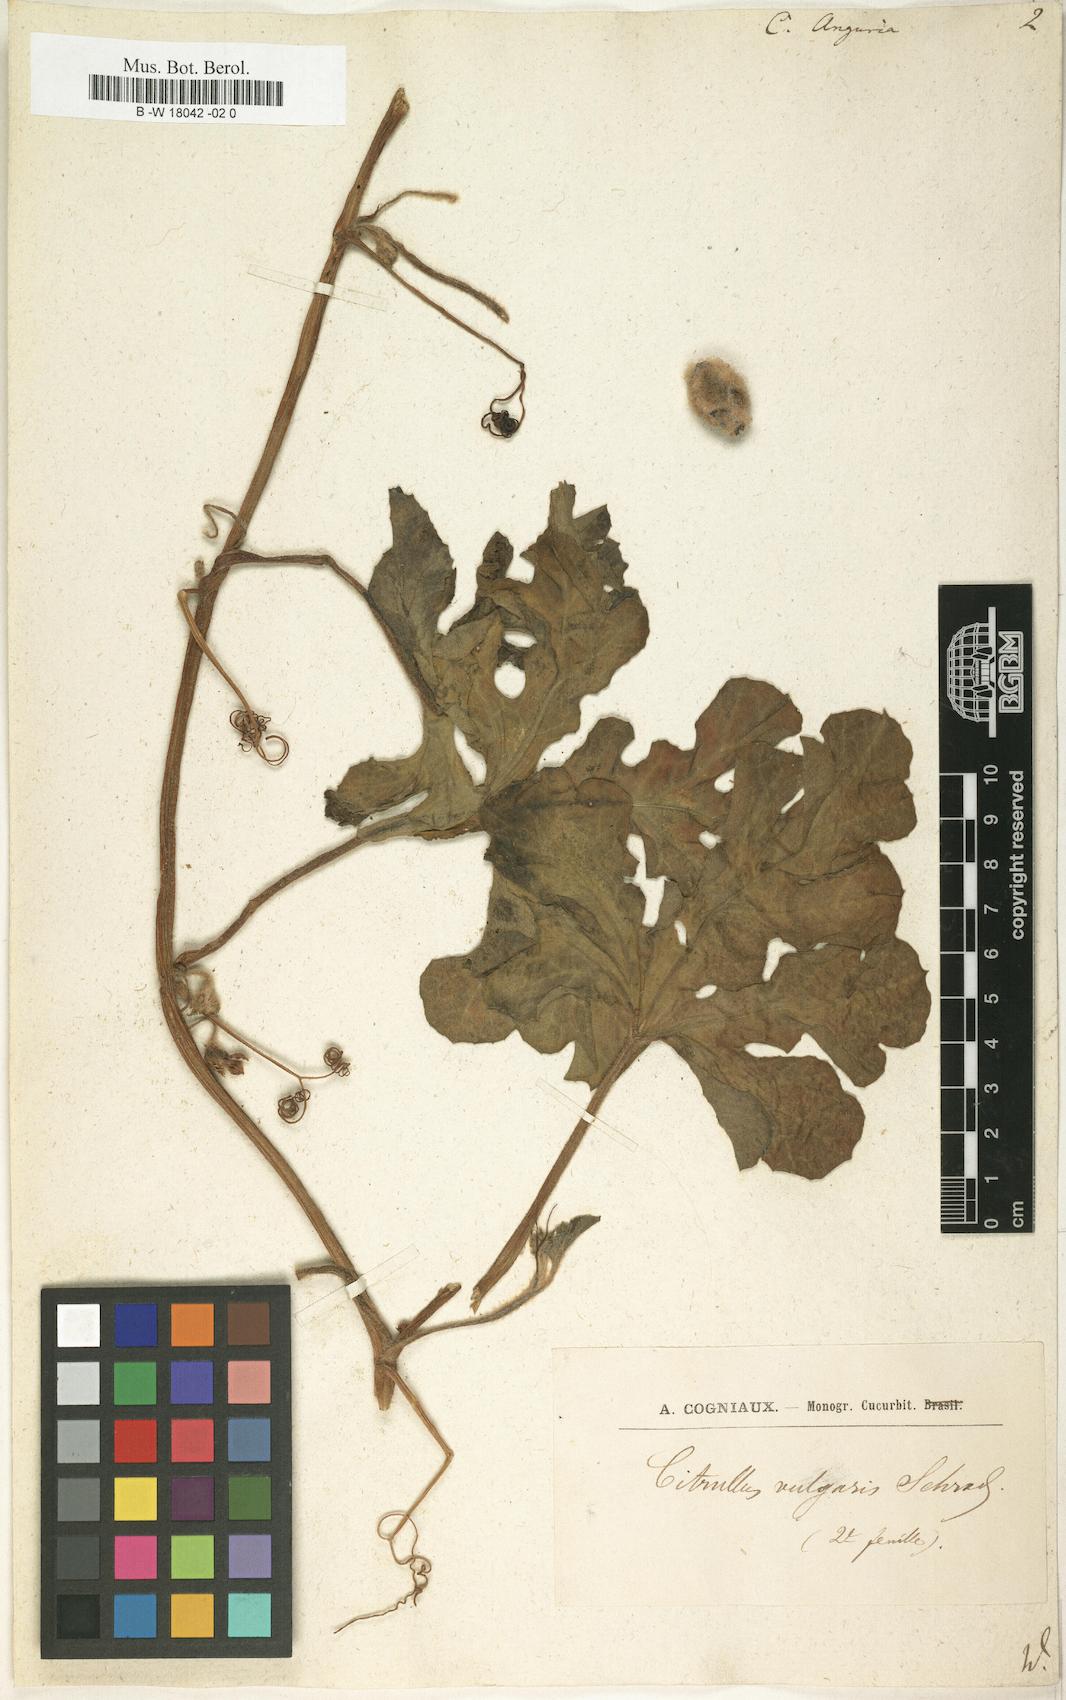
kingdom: Plantae
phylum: Tracheophyta
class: Magnoliopsida
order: Cucurbitales
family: Cucurbitaceae
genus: Cucumis
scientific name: Cucumis anguria
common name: West indian gherkin
